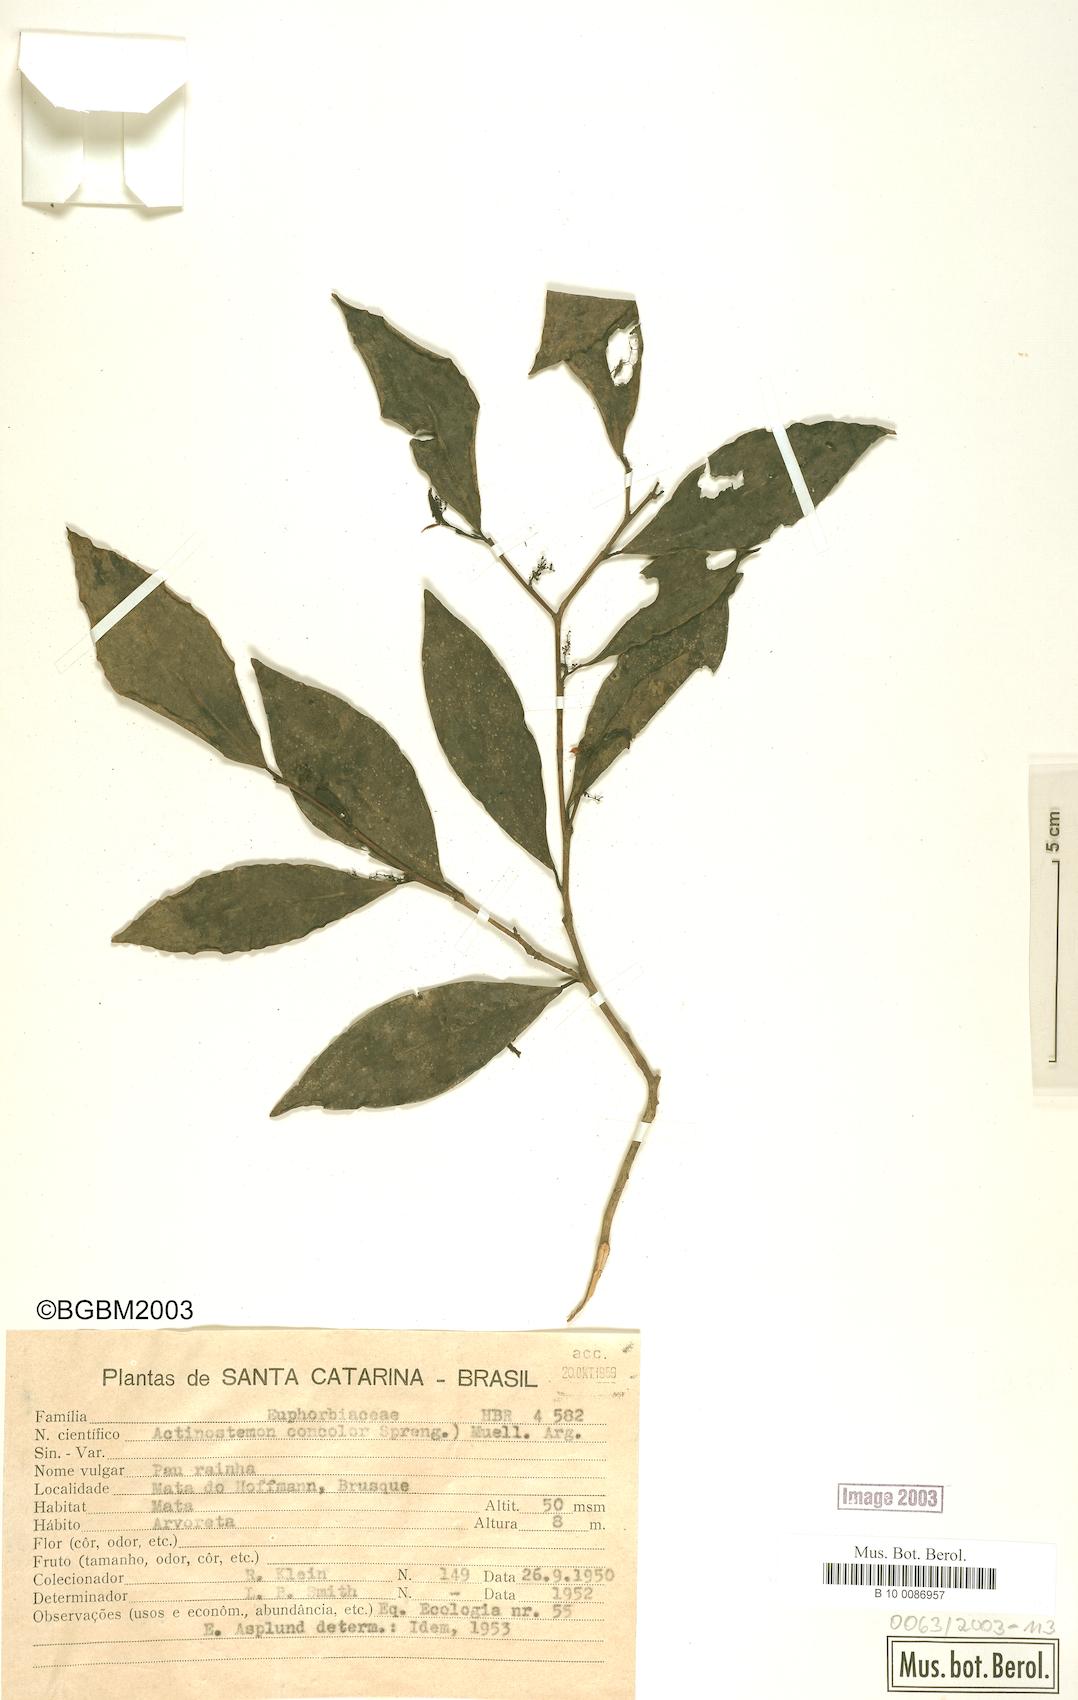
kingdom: Plantae
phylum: Tracheophyta
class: Magnoliopsida
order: Malpighiales
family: Euphorbiaceae
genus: Actinostemon
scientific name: Actinostemon concolor
